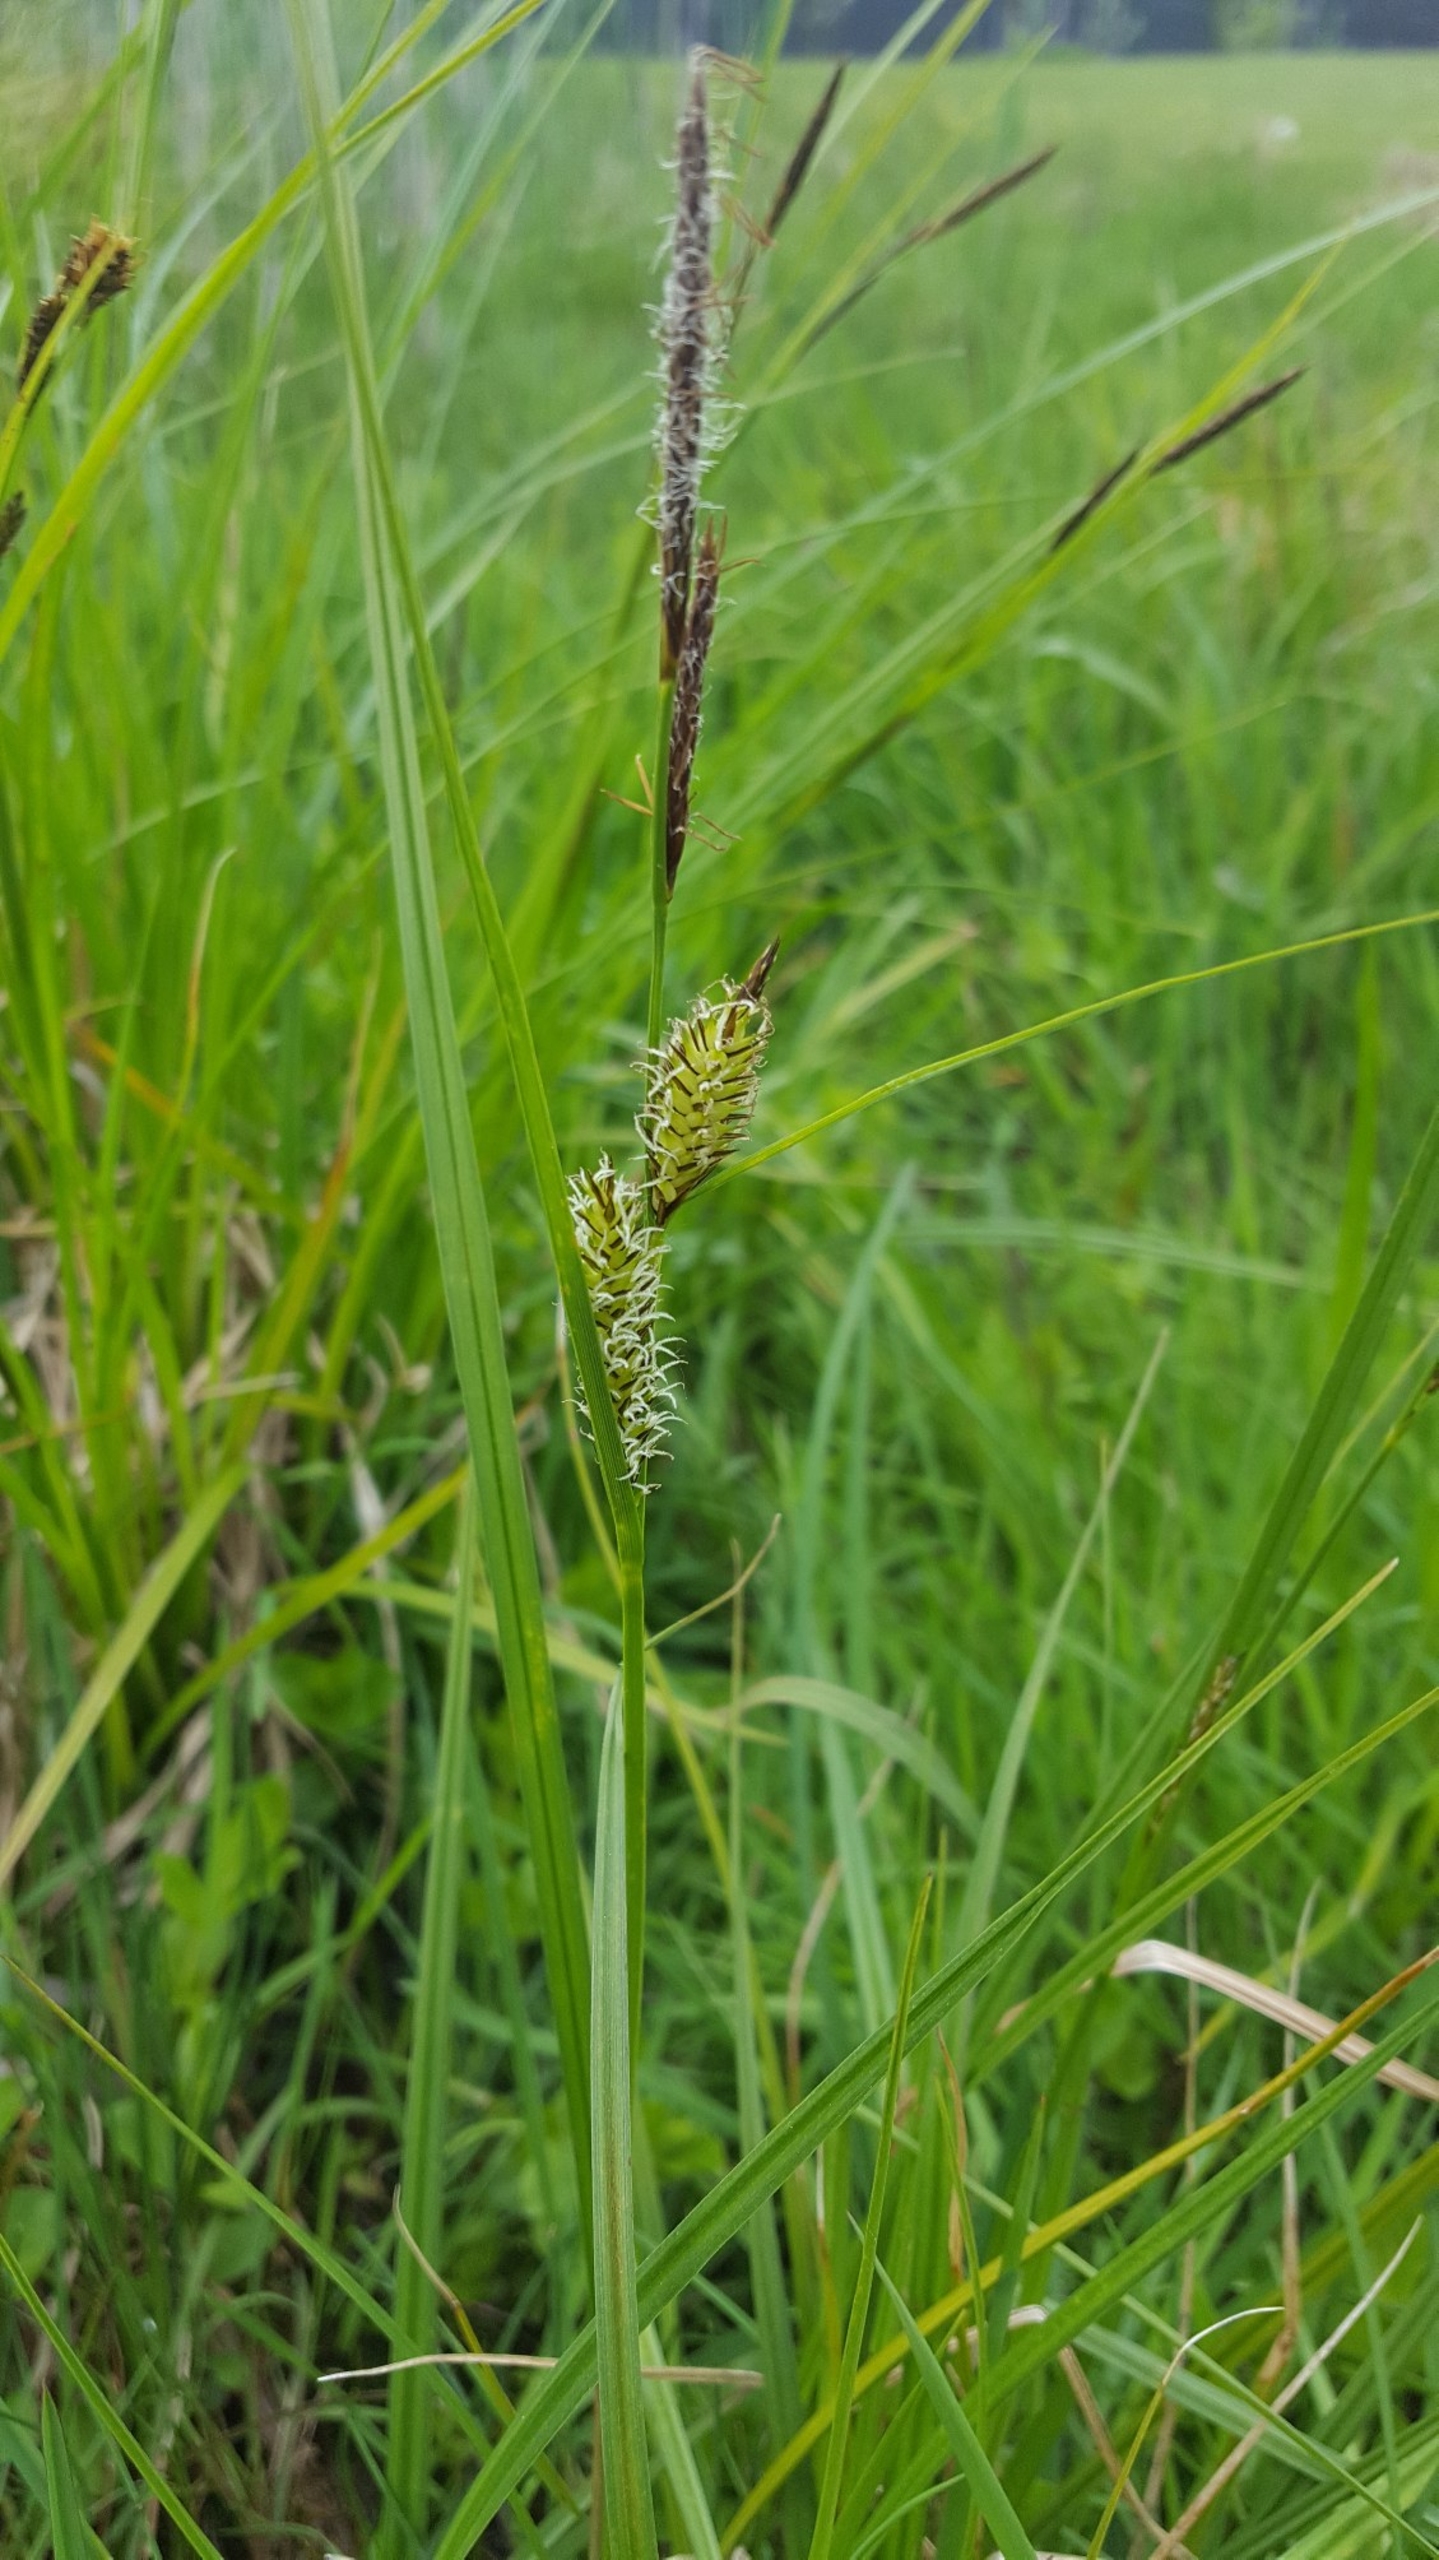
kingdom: Plantae
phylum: Tracheophyta
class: Liliopsida
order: Poales
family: Cyperaceae
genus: Carex
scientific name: Carex vesicaria
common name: Blære-star
